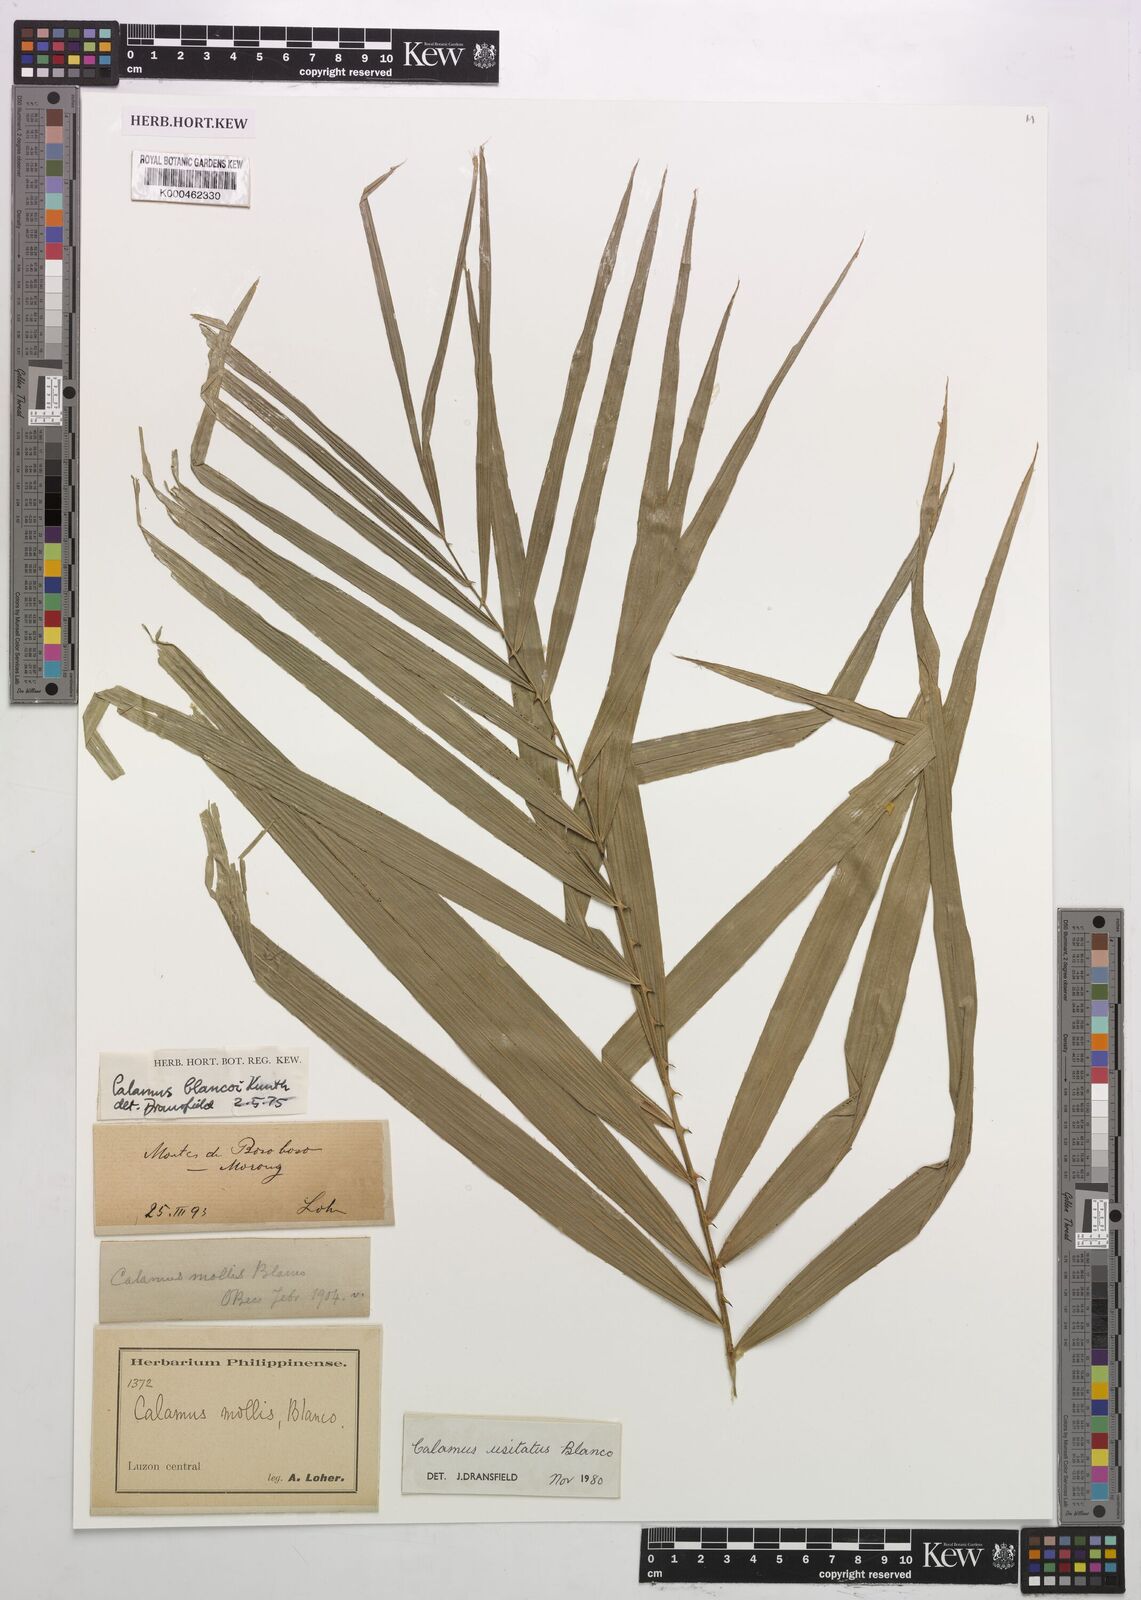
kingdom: Plantae
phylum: Tracheophyta
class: Liliopsida
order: Arecales
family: Arecaceae
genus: Calamus
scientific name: Calamus usitatus
